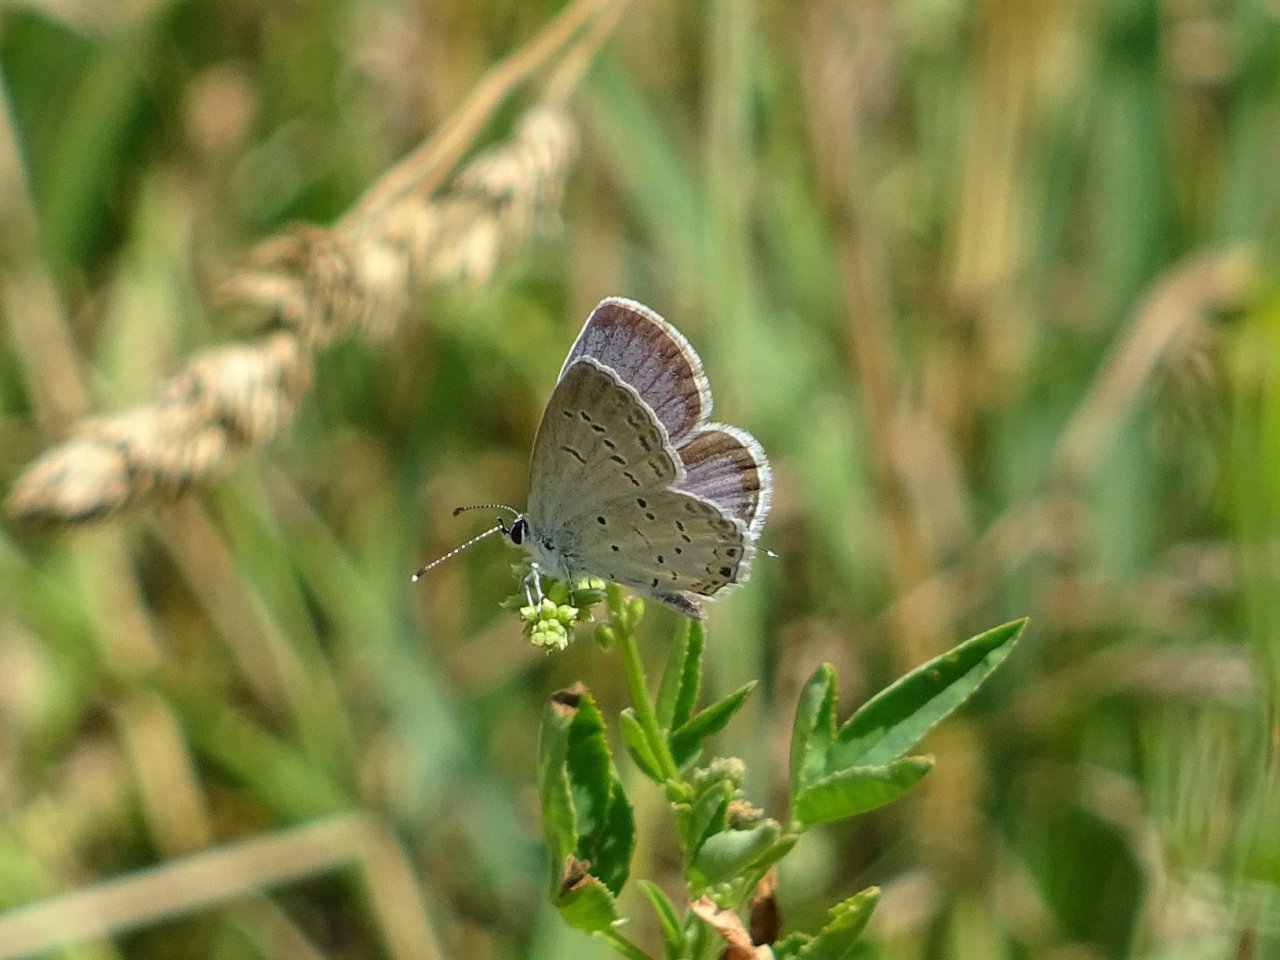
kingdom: Animalia
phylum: Arthropoda
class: Insecta
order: Lepidoptera
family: Lycaenidae
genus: Elkalyce
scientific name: Elkalyce comyntas
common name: Eastern Tailed-Blue
